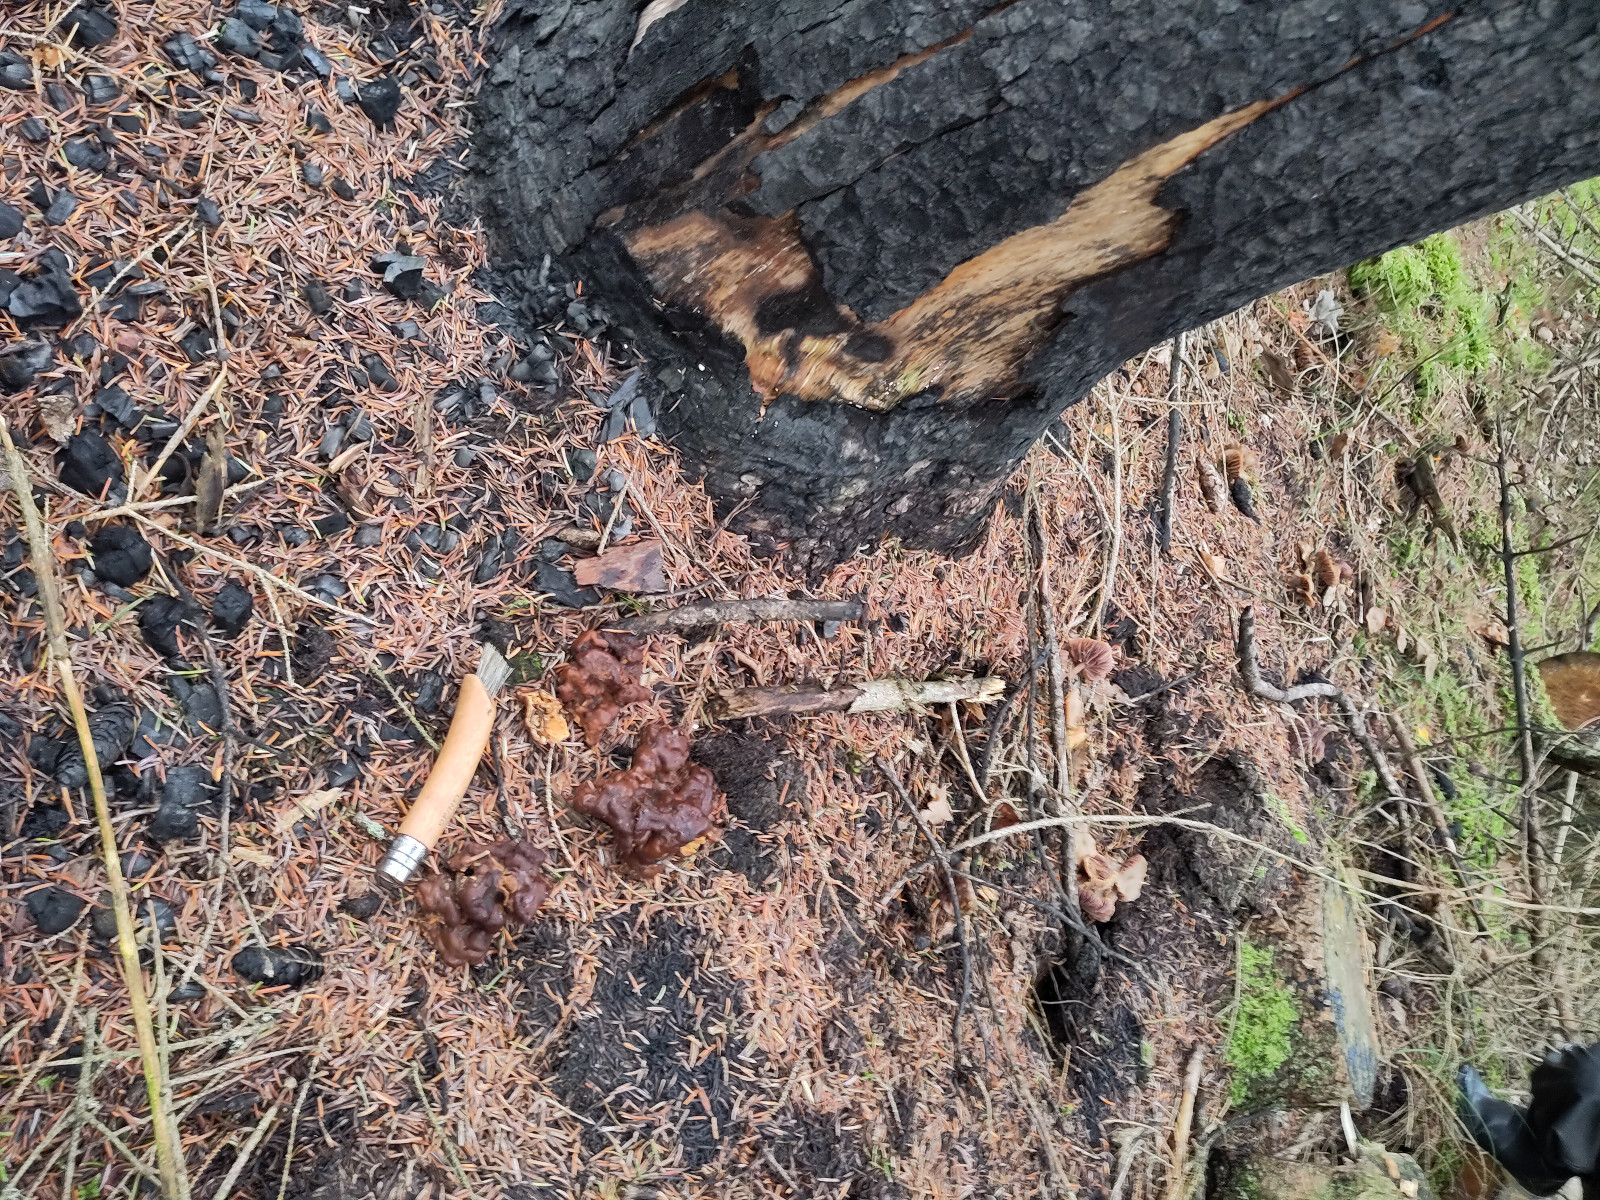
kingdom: Fungi
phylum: Ascomycota
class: Pezizomycetes
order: Pezizales
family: Rhizinaceae
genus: Rhizina
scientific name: Rhizina undulata
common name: rodmorkel
